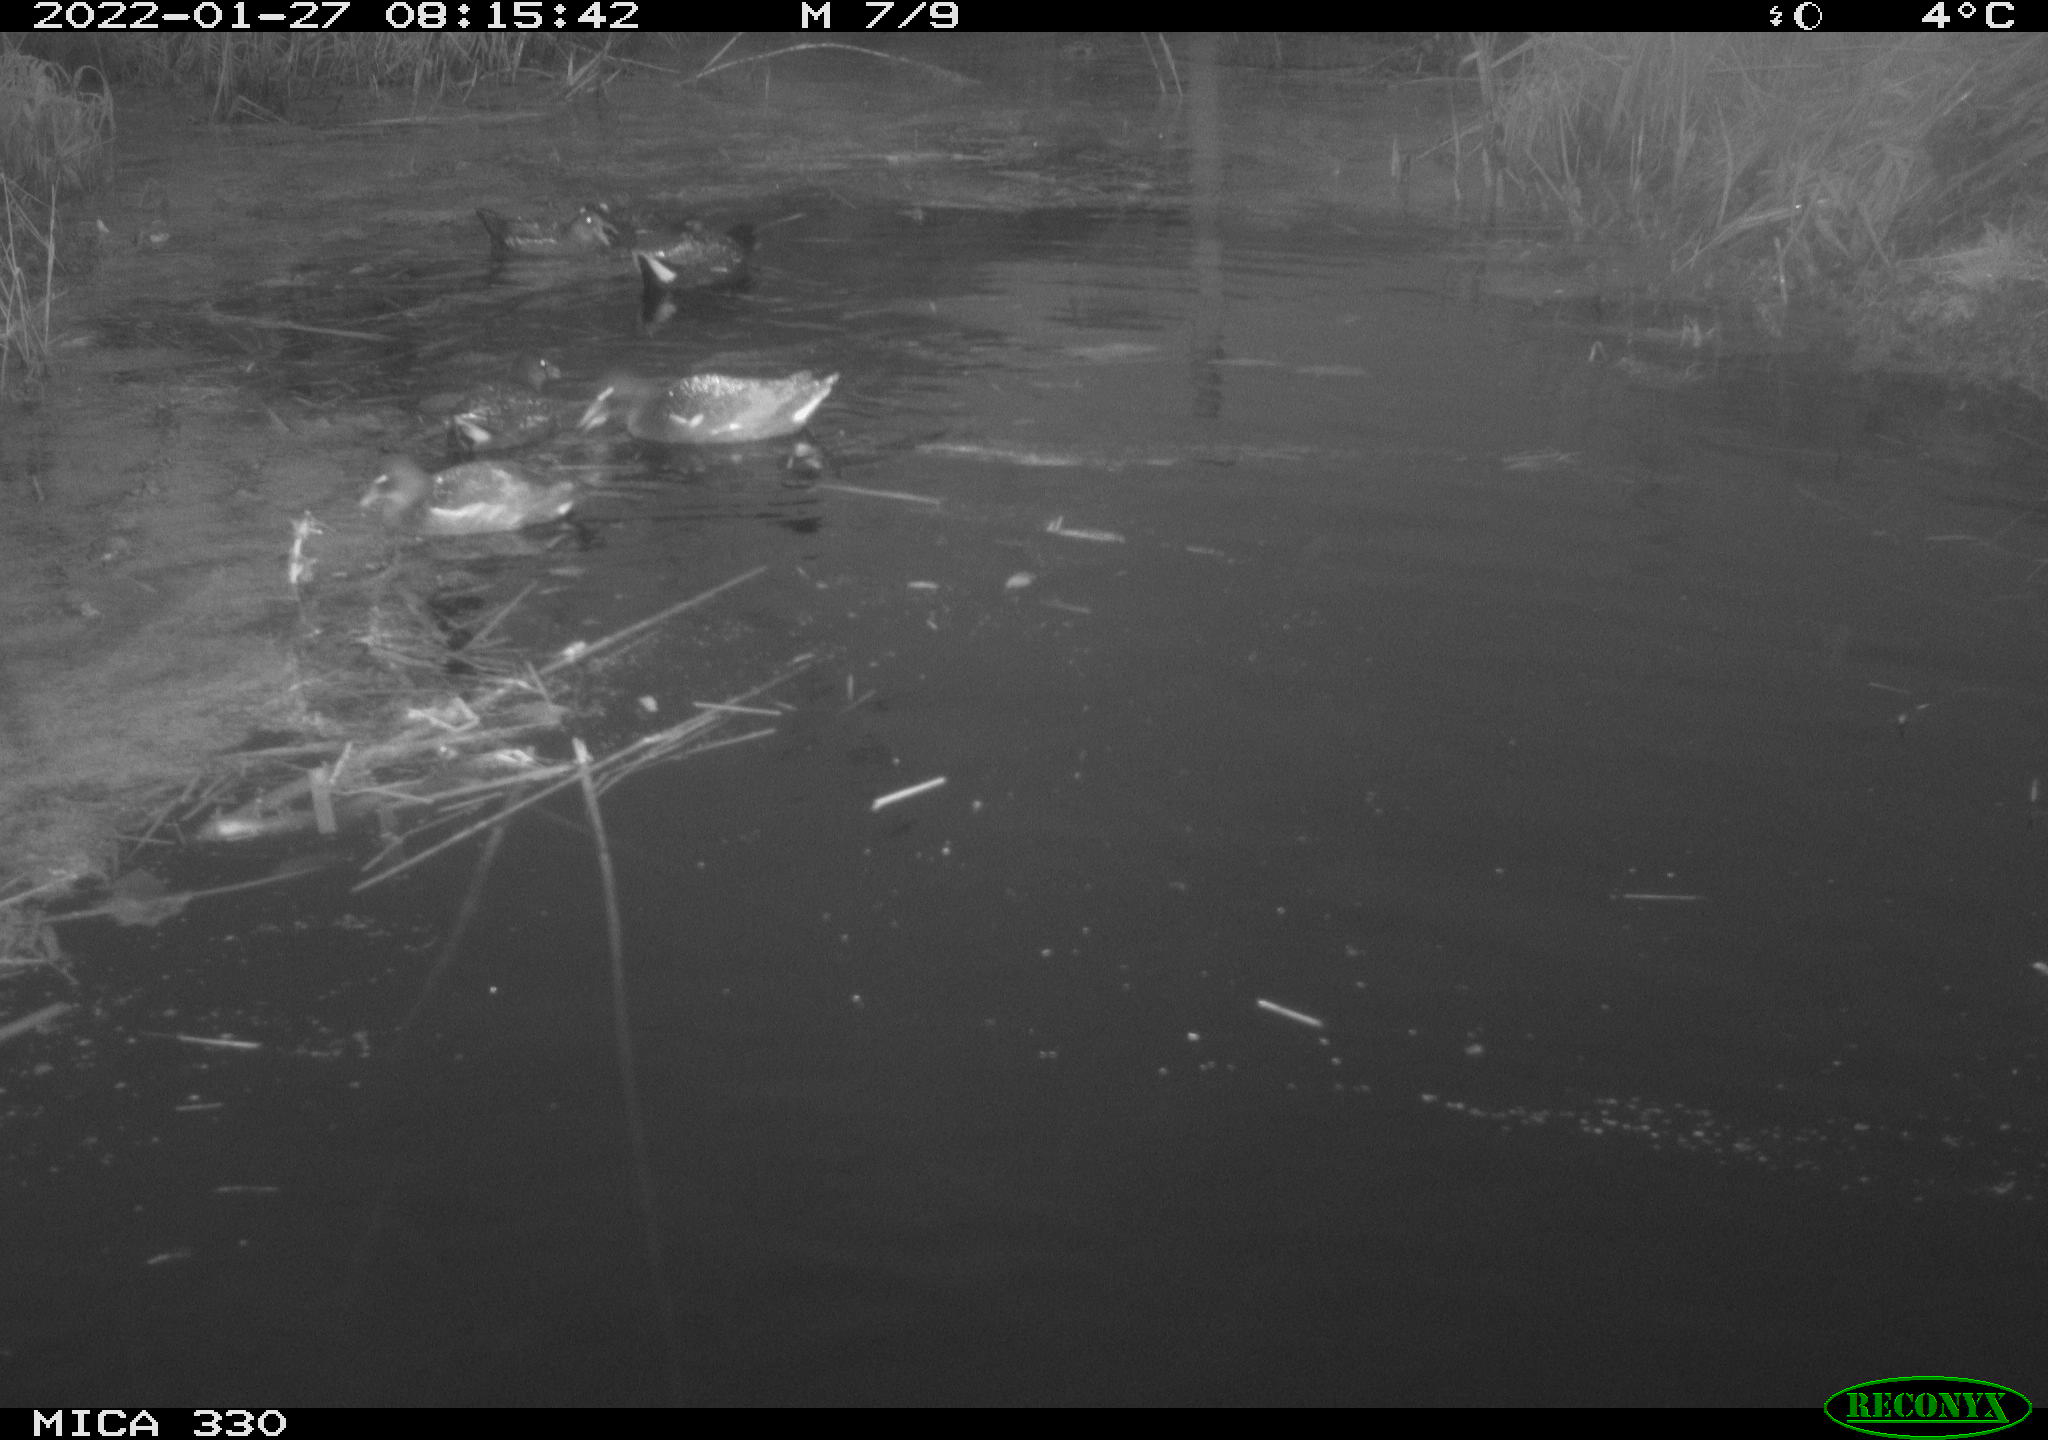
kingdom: Animalia
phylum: Chordata
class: Aves
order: Gruiformes
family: Rallidae
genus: Gallinula
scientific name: Gallinula chloropus
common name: Common moorhen
